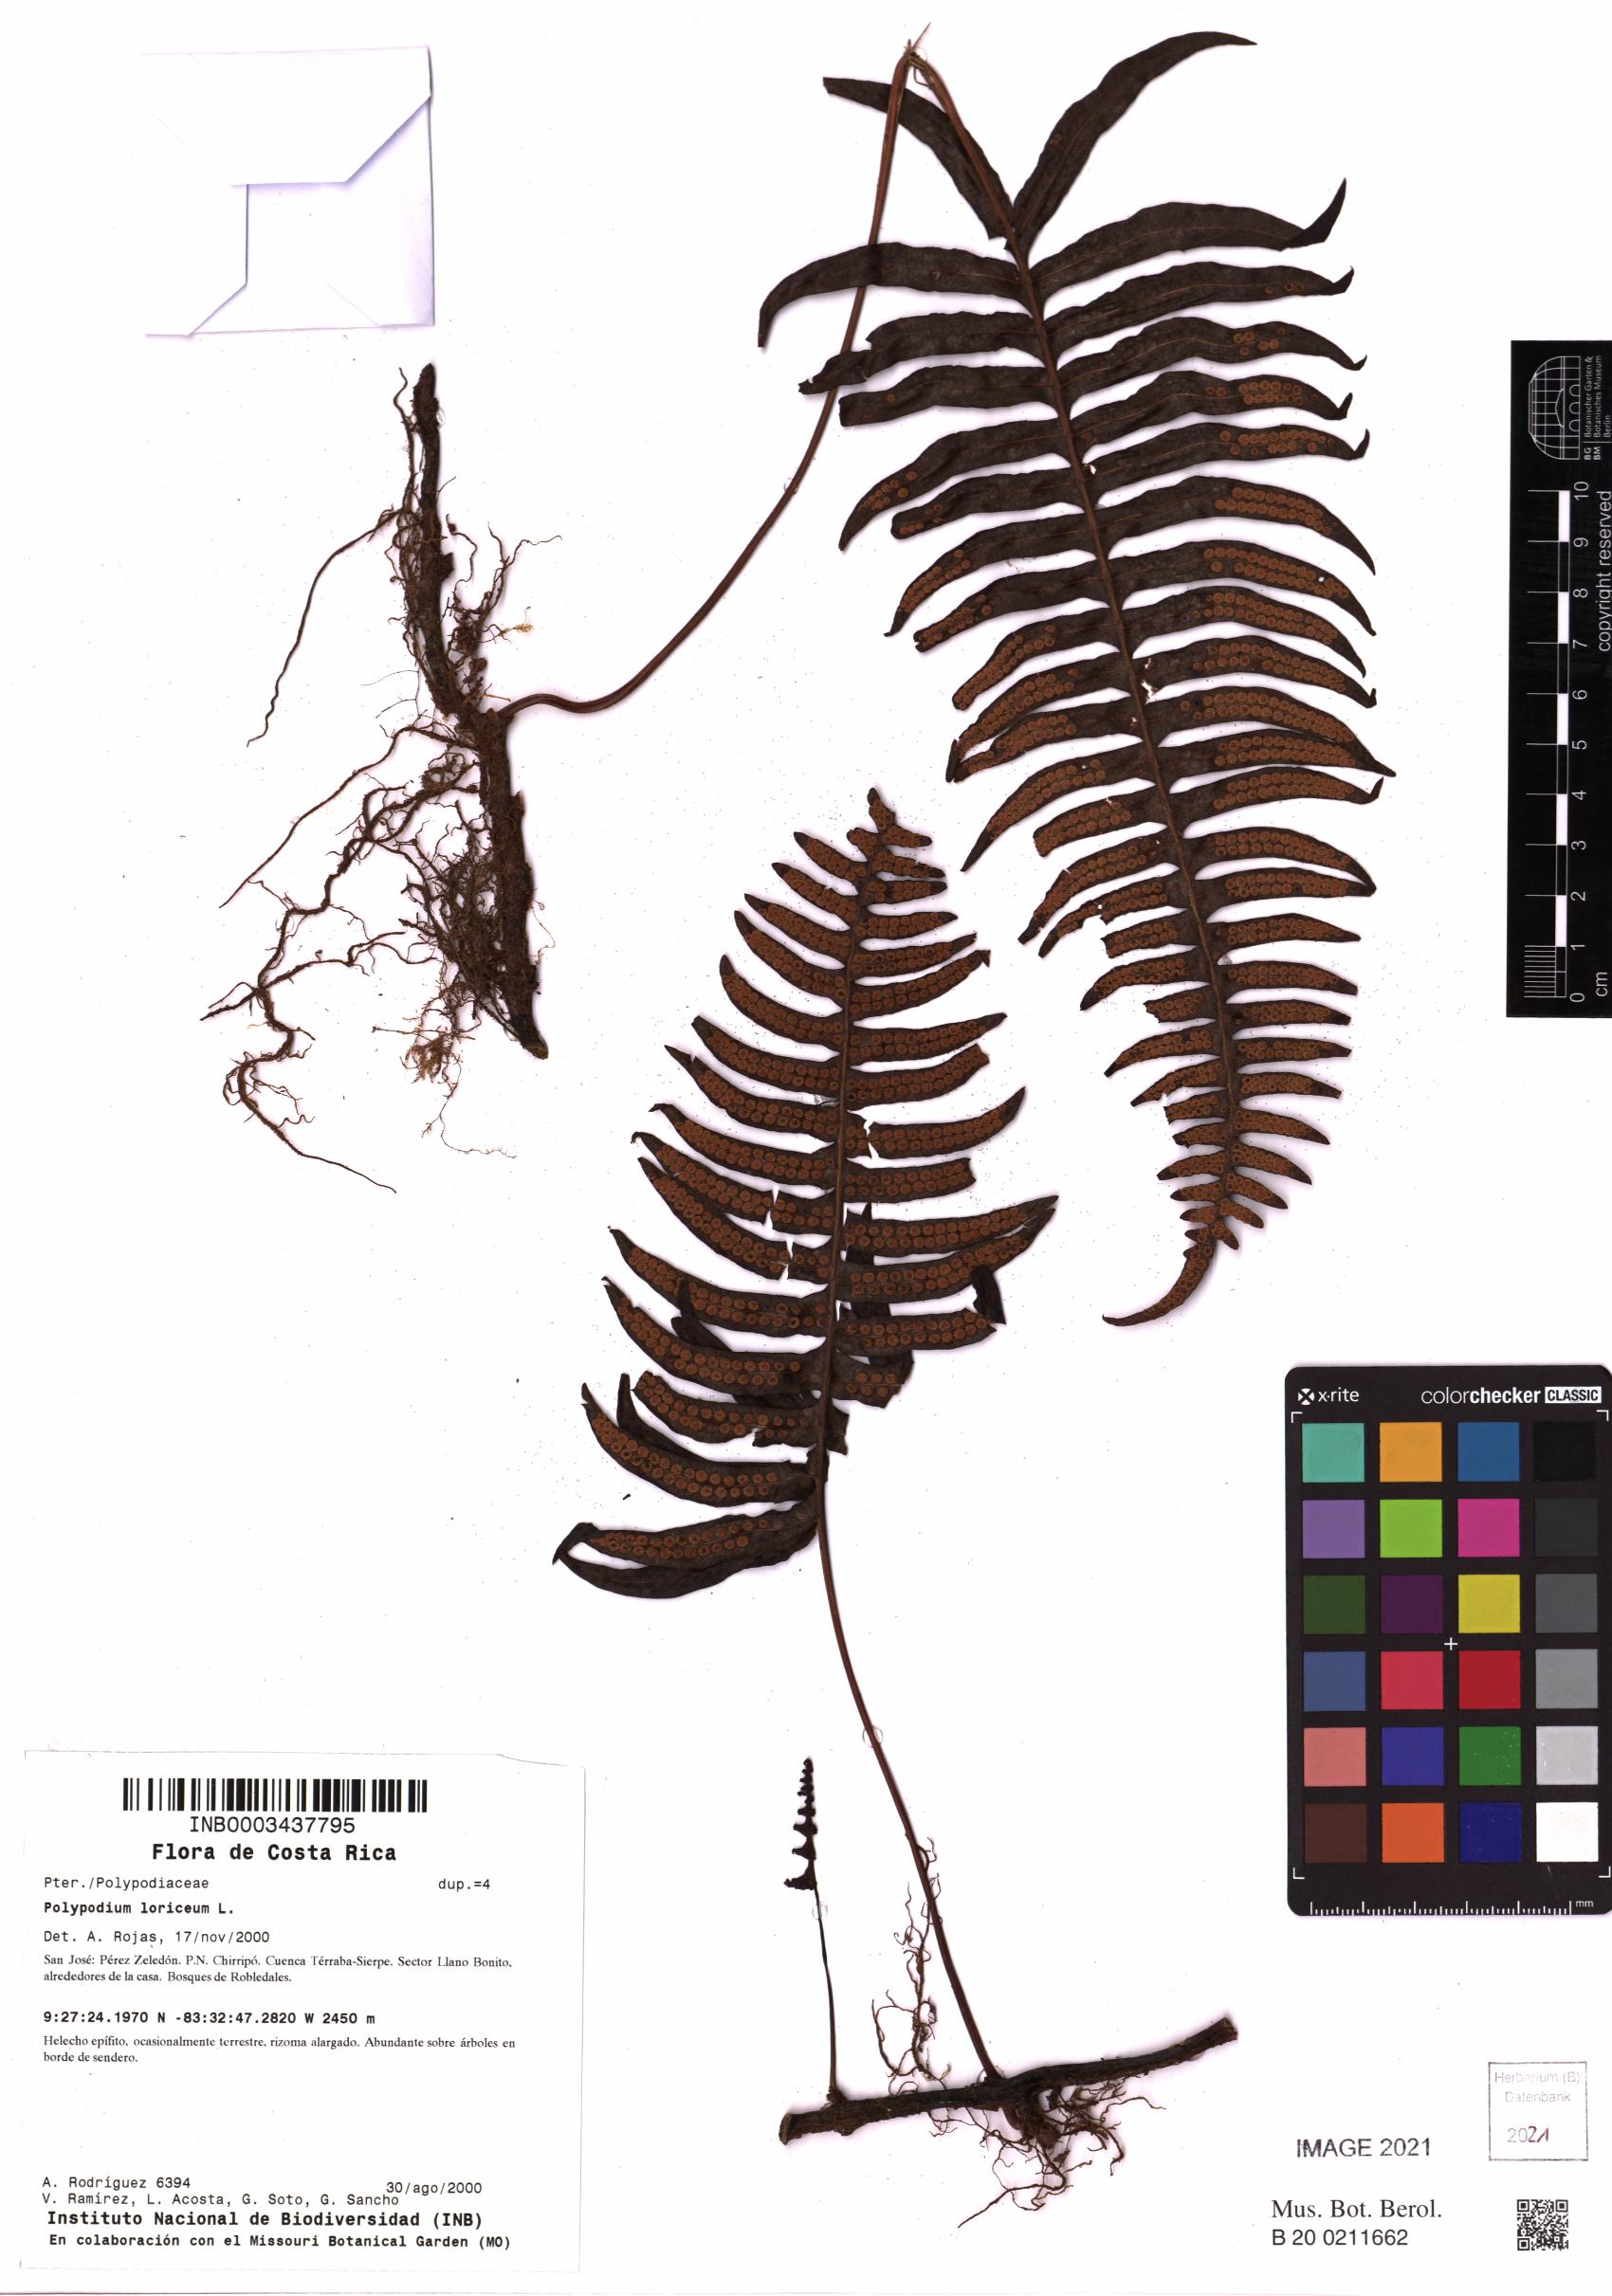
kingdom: Plantae
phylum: Tracheophyta
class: Polypodiopsida
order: Polypodiales
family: Polypodiaceae
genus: Serpocaulon
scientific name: Serpocaulon loriceum
